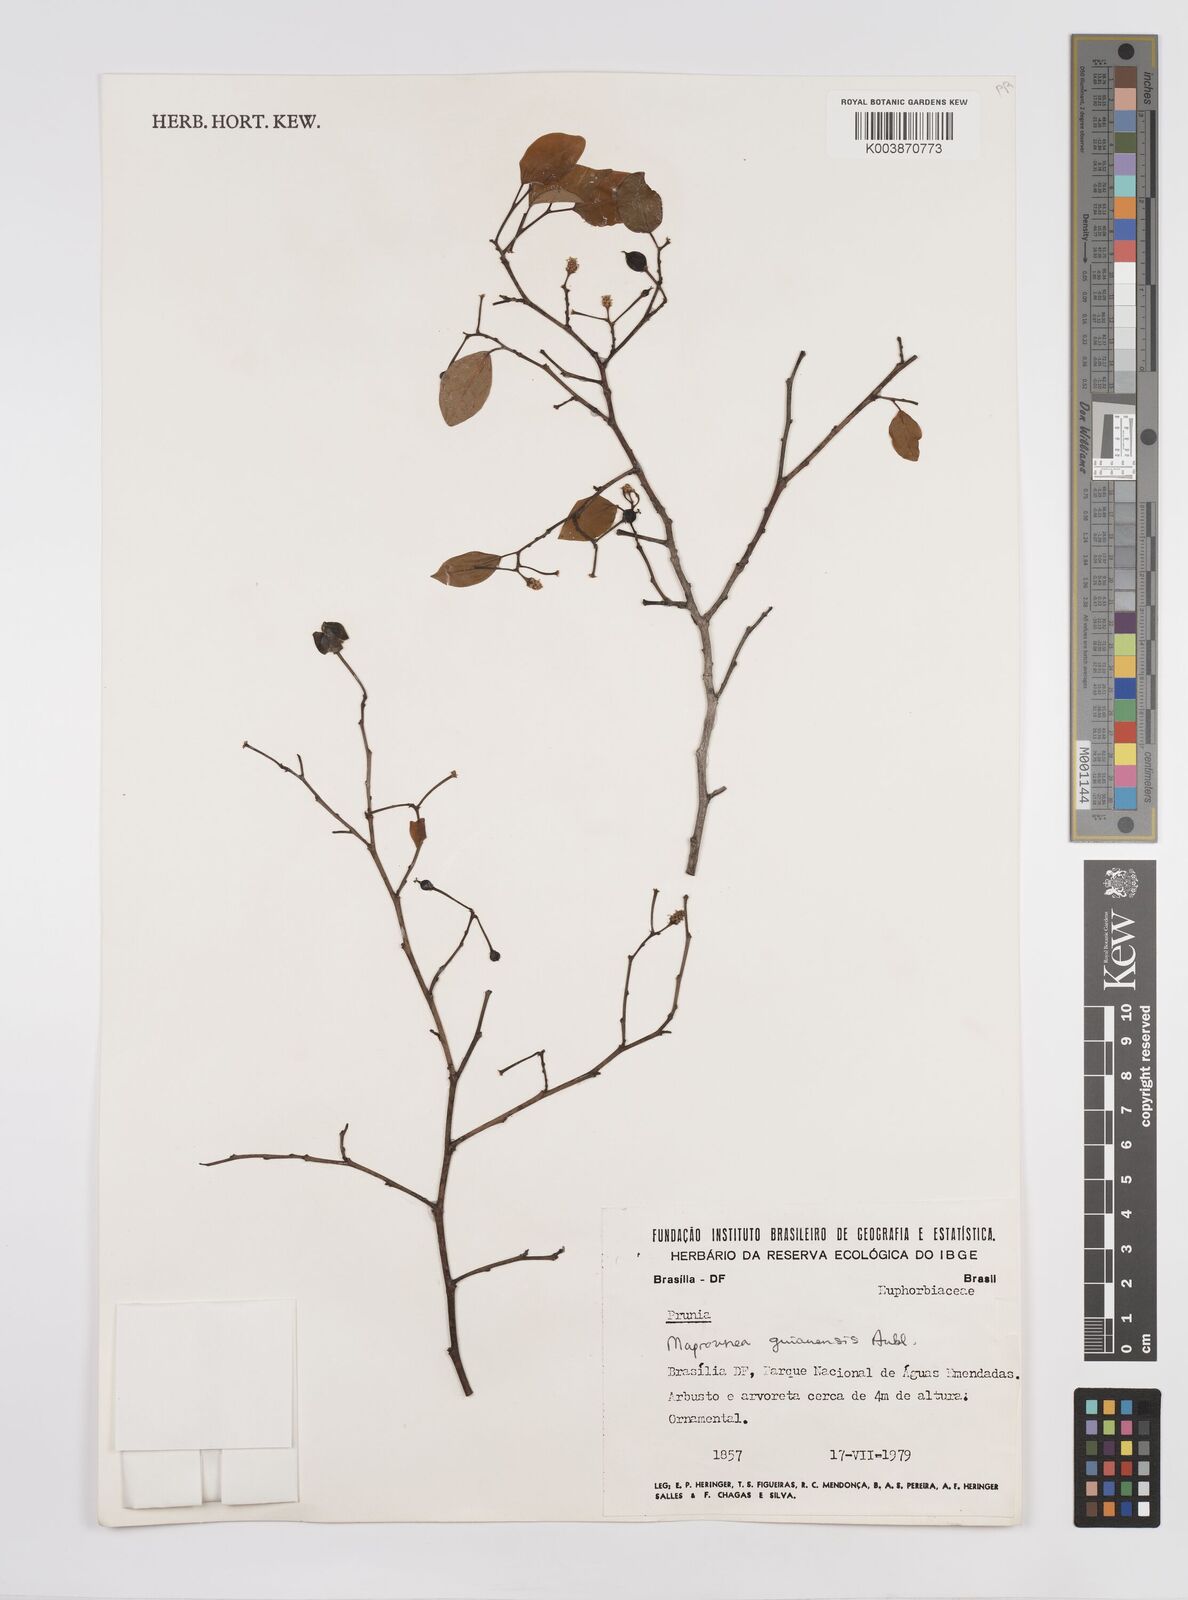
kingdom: Plantae
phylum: Tracheophyta
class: Magnoliopsida
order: Malpighiales
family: Euphorbiaceae
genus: Maprounea
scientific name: Maprounea guianensis
